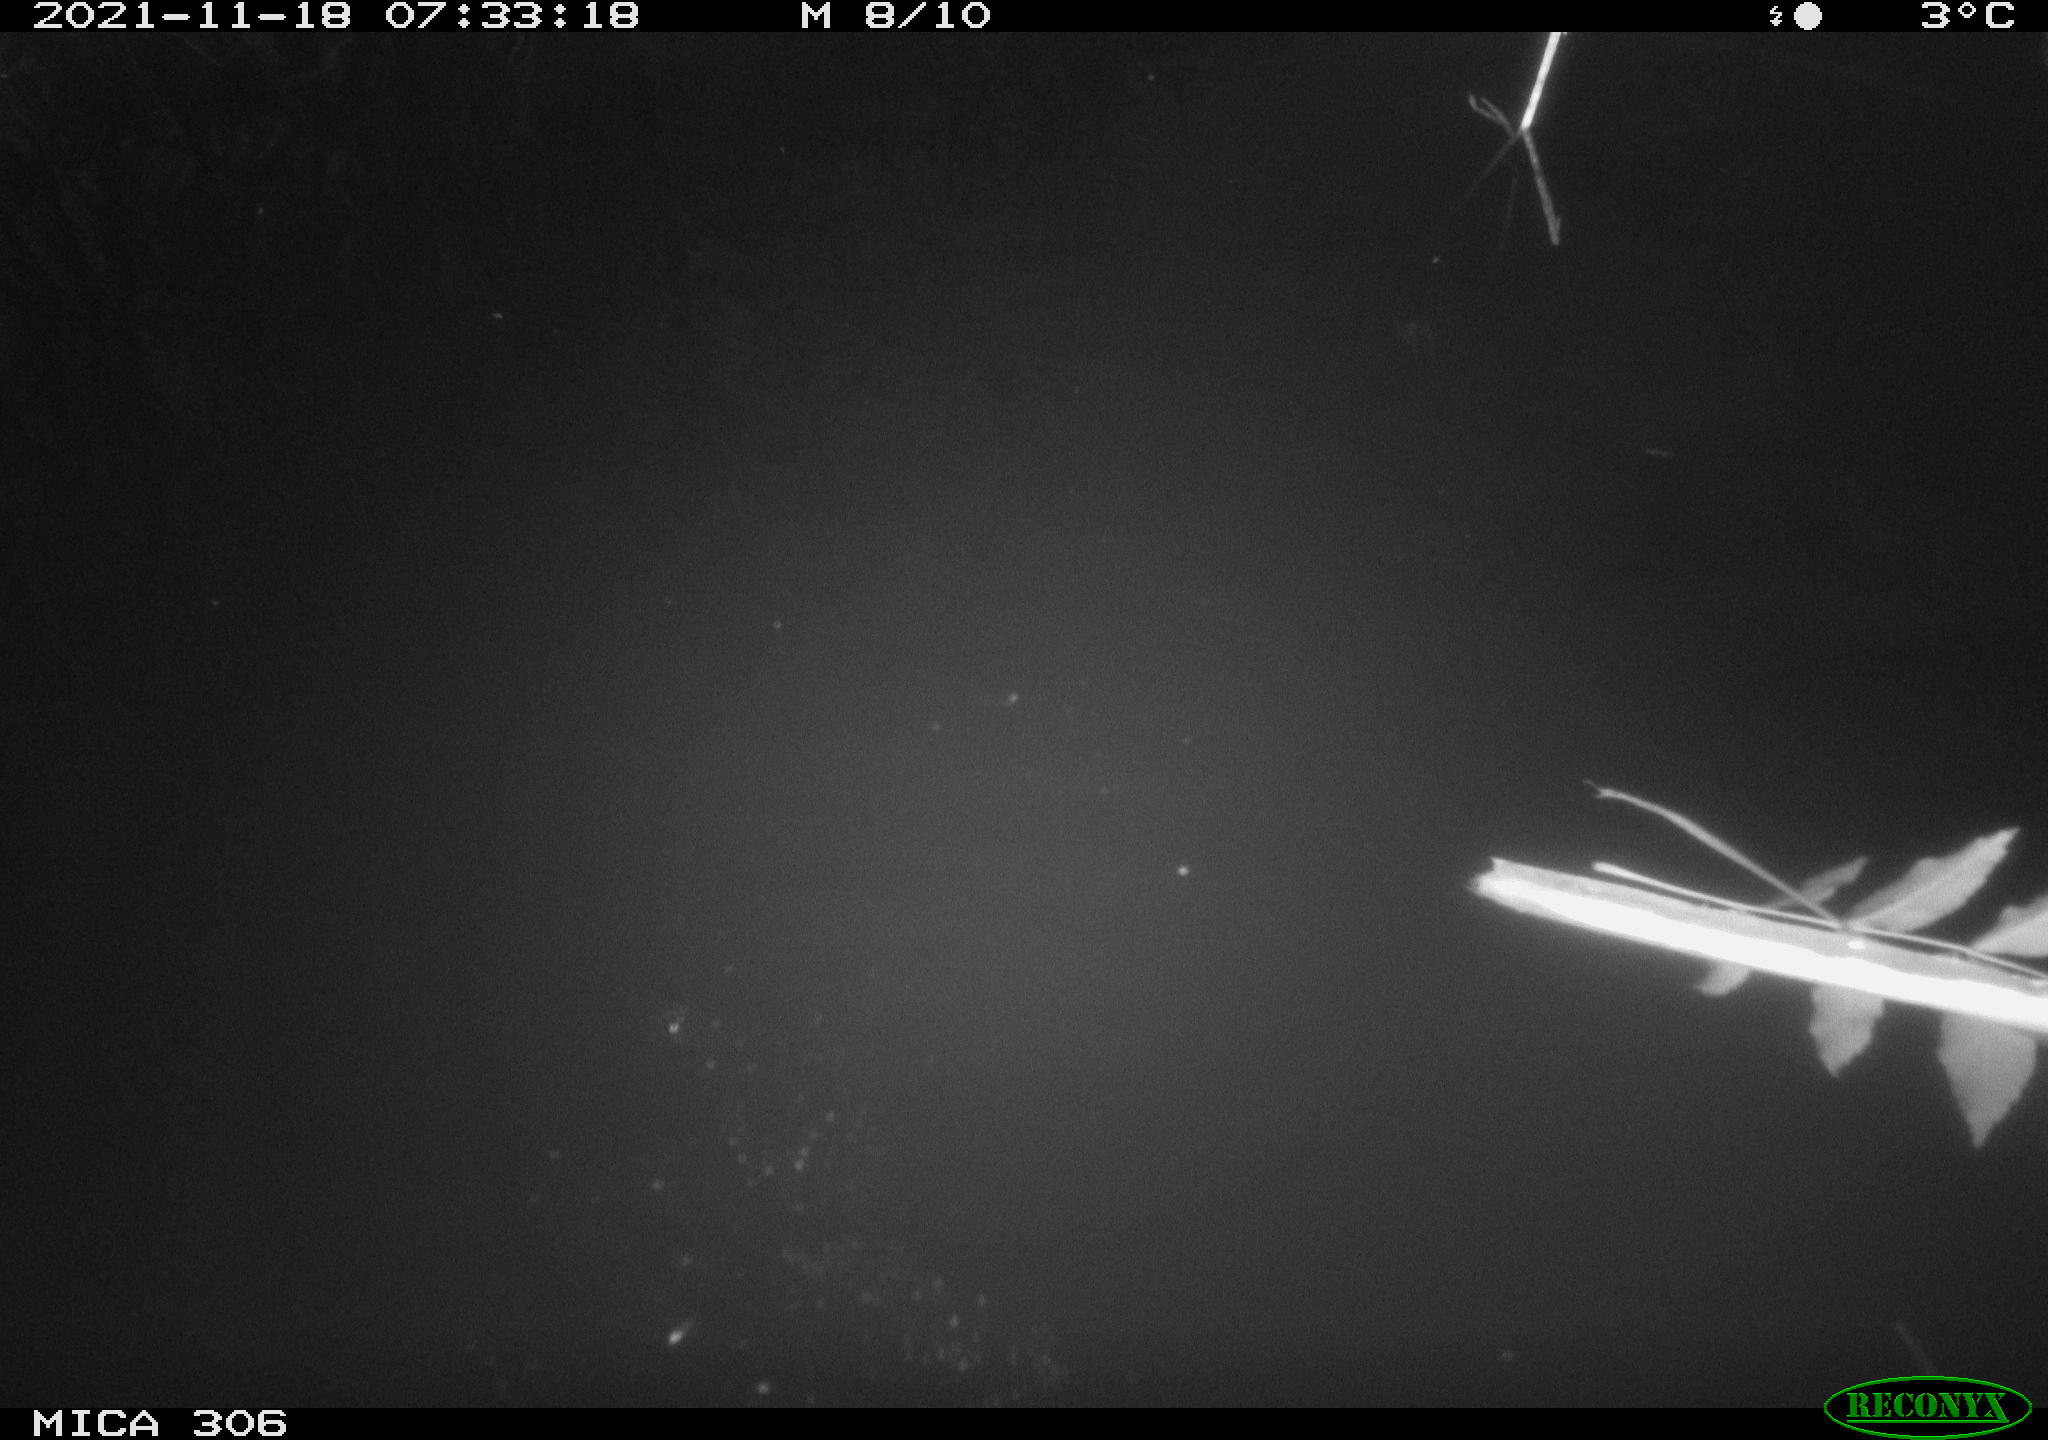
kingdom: Animalia
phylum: Chordata
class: Aves
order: Gruiformes
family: Rallidae
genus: Fulica
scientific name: Fulica atra
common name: Eurasian coot
